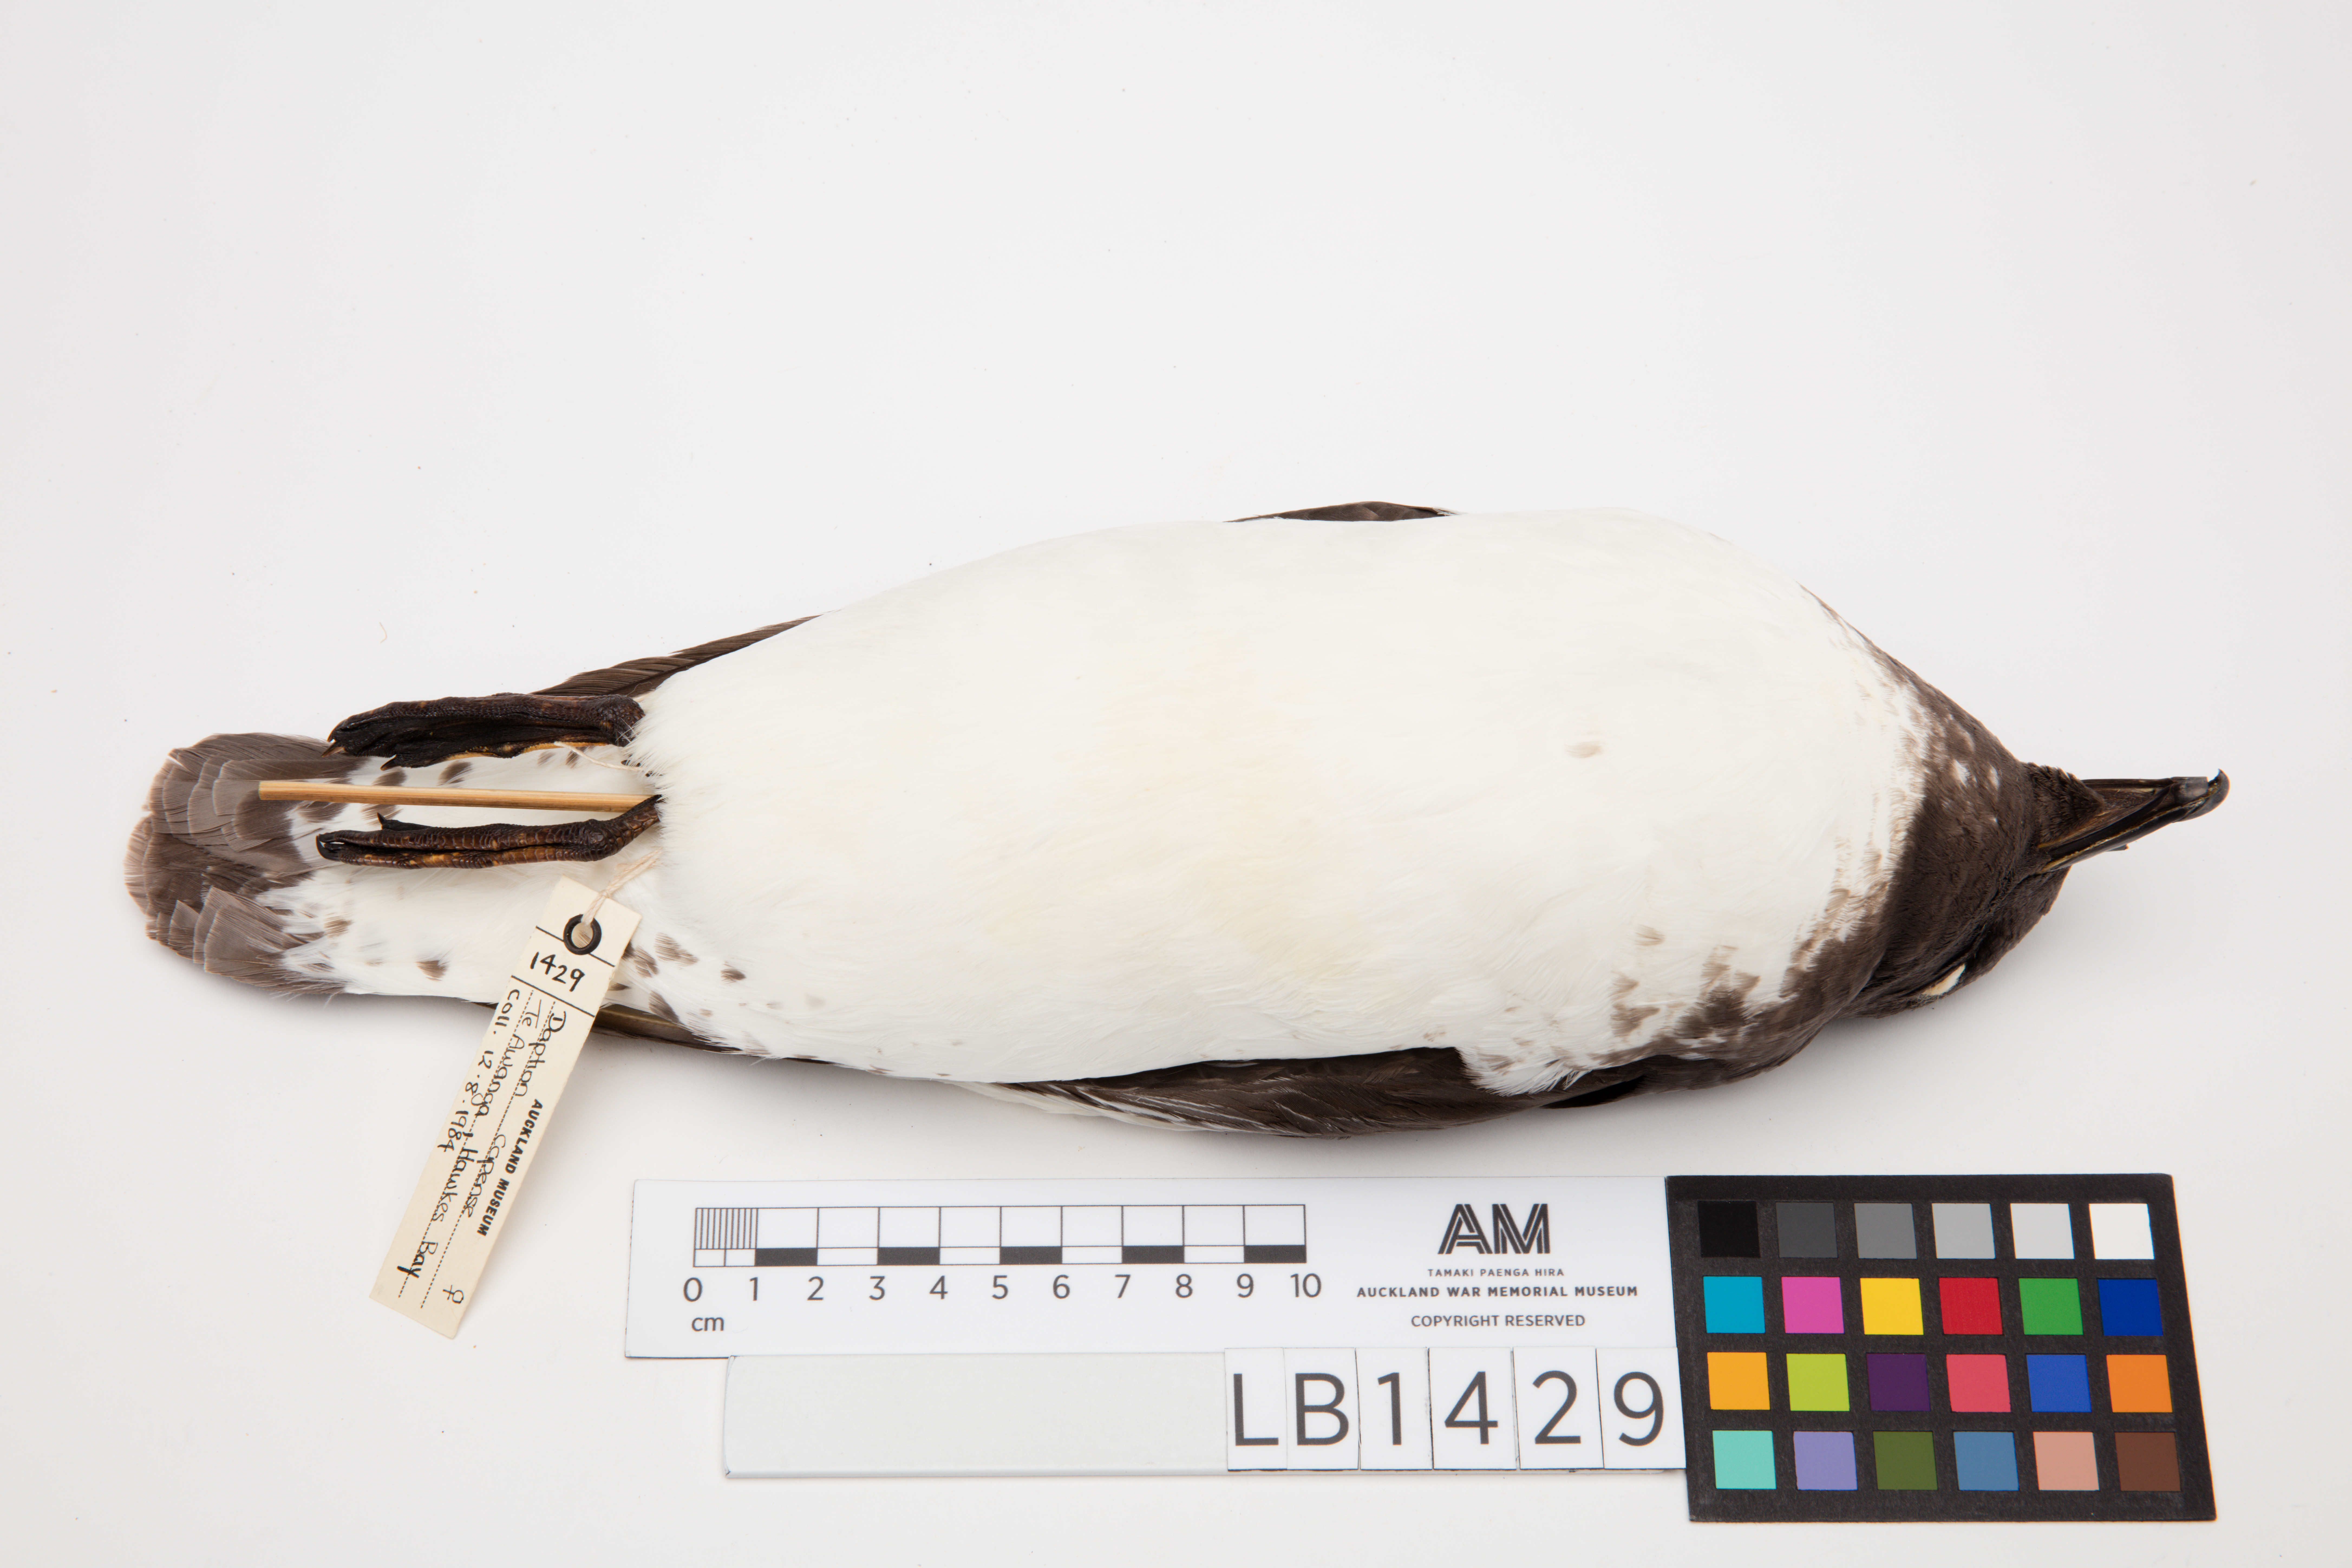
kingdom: Animalia
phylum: Chordata
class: Aves
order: Procellariiformes
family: Procellariidae
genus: Daption
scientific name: Daption capense
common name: Cape petrel
